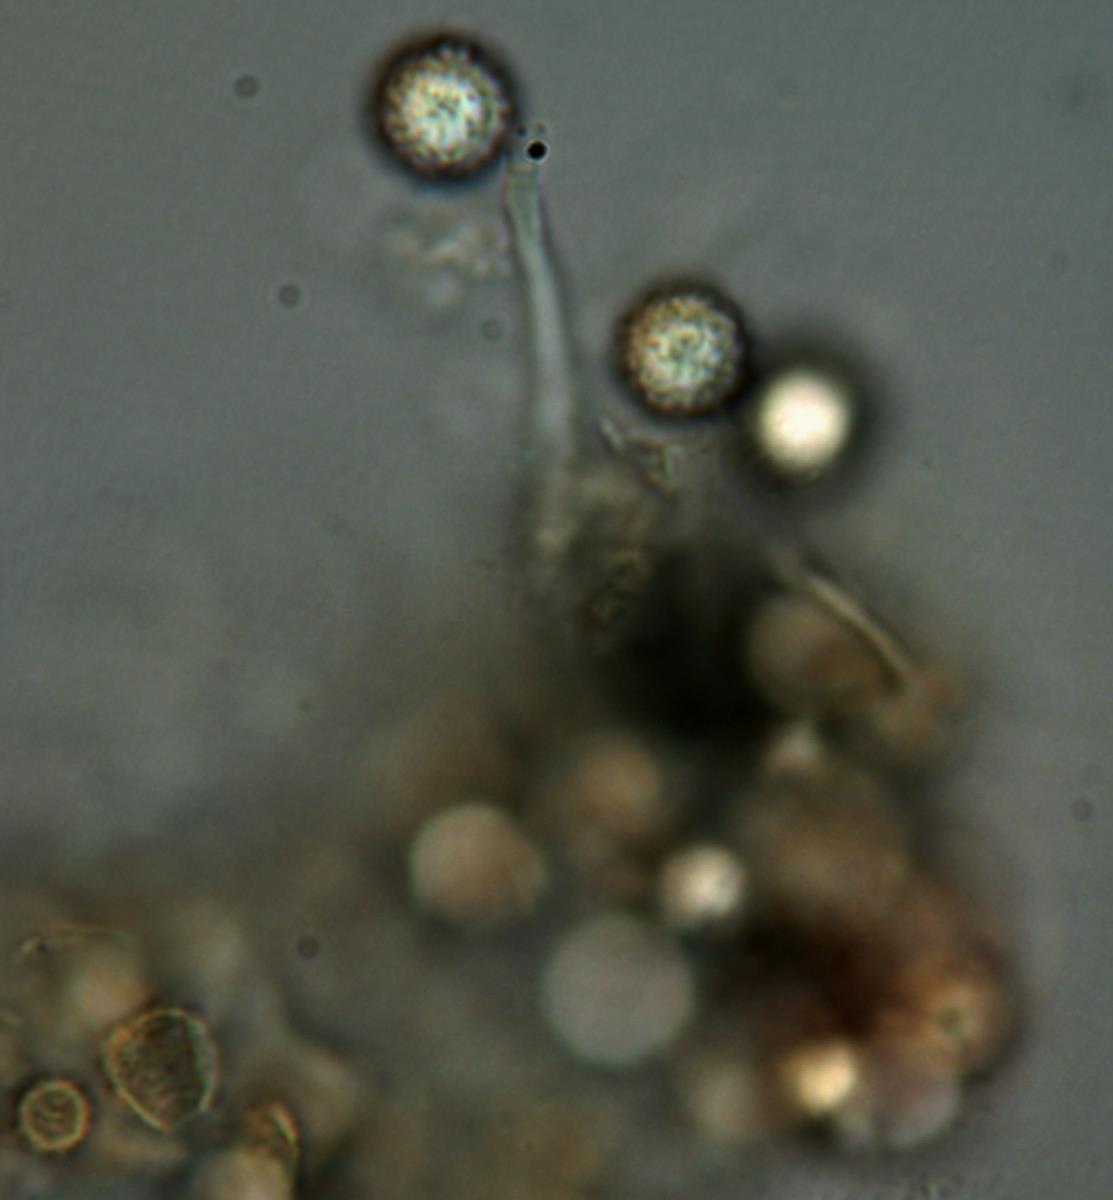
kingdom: Fungi
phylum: Basidiomycota
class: Agaricomycetes
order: Boletales
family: Sclerodermataceae
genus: Pisolithus
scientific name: Pisolithus thermaeus
